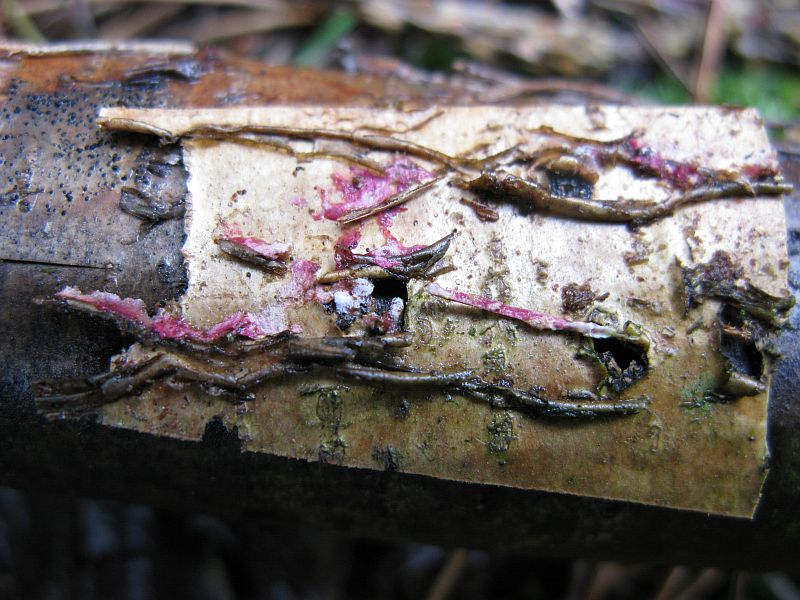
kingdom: Fungi
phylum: Ascomycota
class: Sordariomycetes
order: Hypocreales
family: Hypocreaceae
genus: Hypomyces
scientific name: Hypomyces rosellus
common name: rosa snylteskorpe
